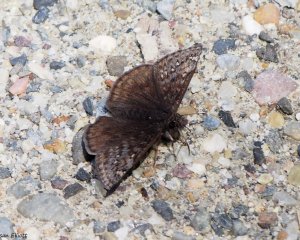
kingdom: Animalia
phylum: Arthropoda
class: Insecta
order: Lepidoptera
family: Hesperiidae
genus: Gesta
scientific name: Gesta
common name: Juvenal's Duskywing
